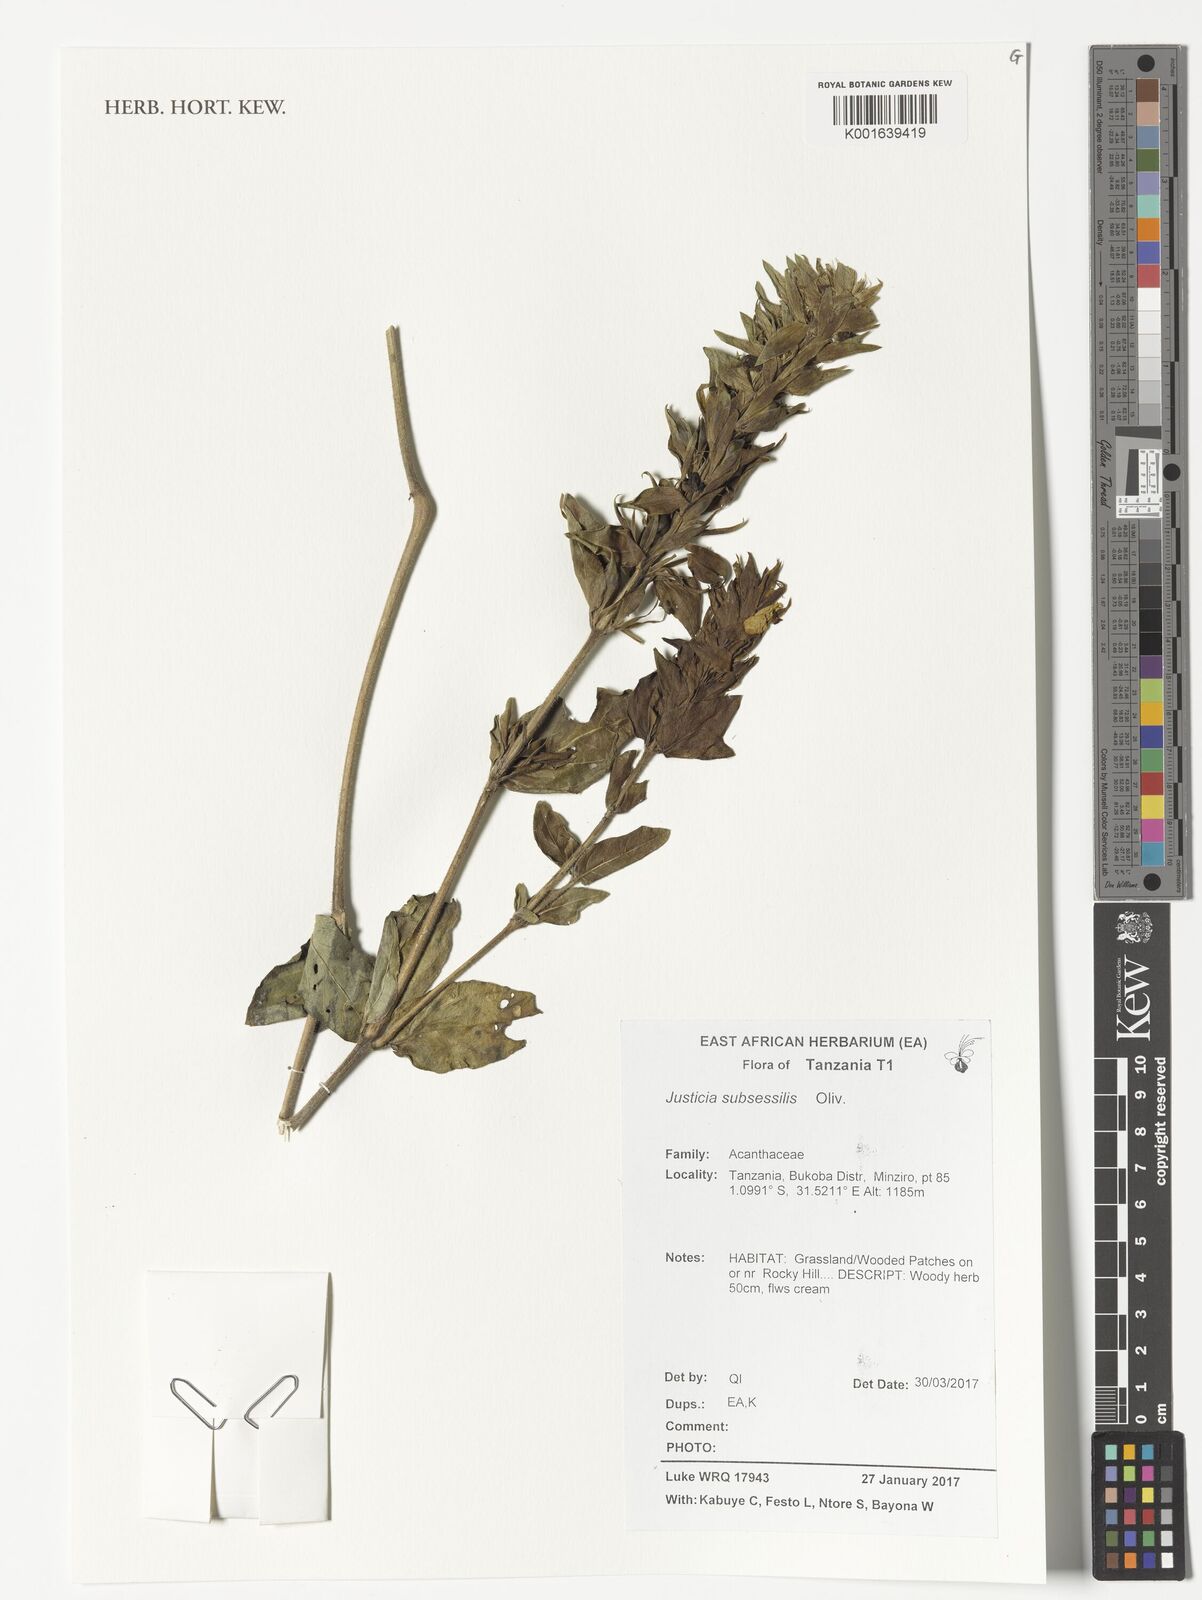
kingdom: Plantae
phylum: Tracheophyta
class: Magnoliopsida
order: Lamiales
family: Acanthaceae
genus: Monechma
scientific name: Monechma subsessile
